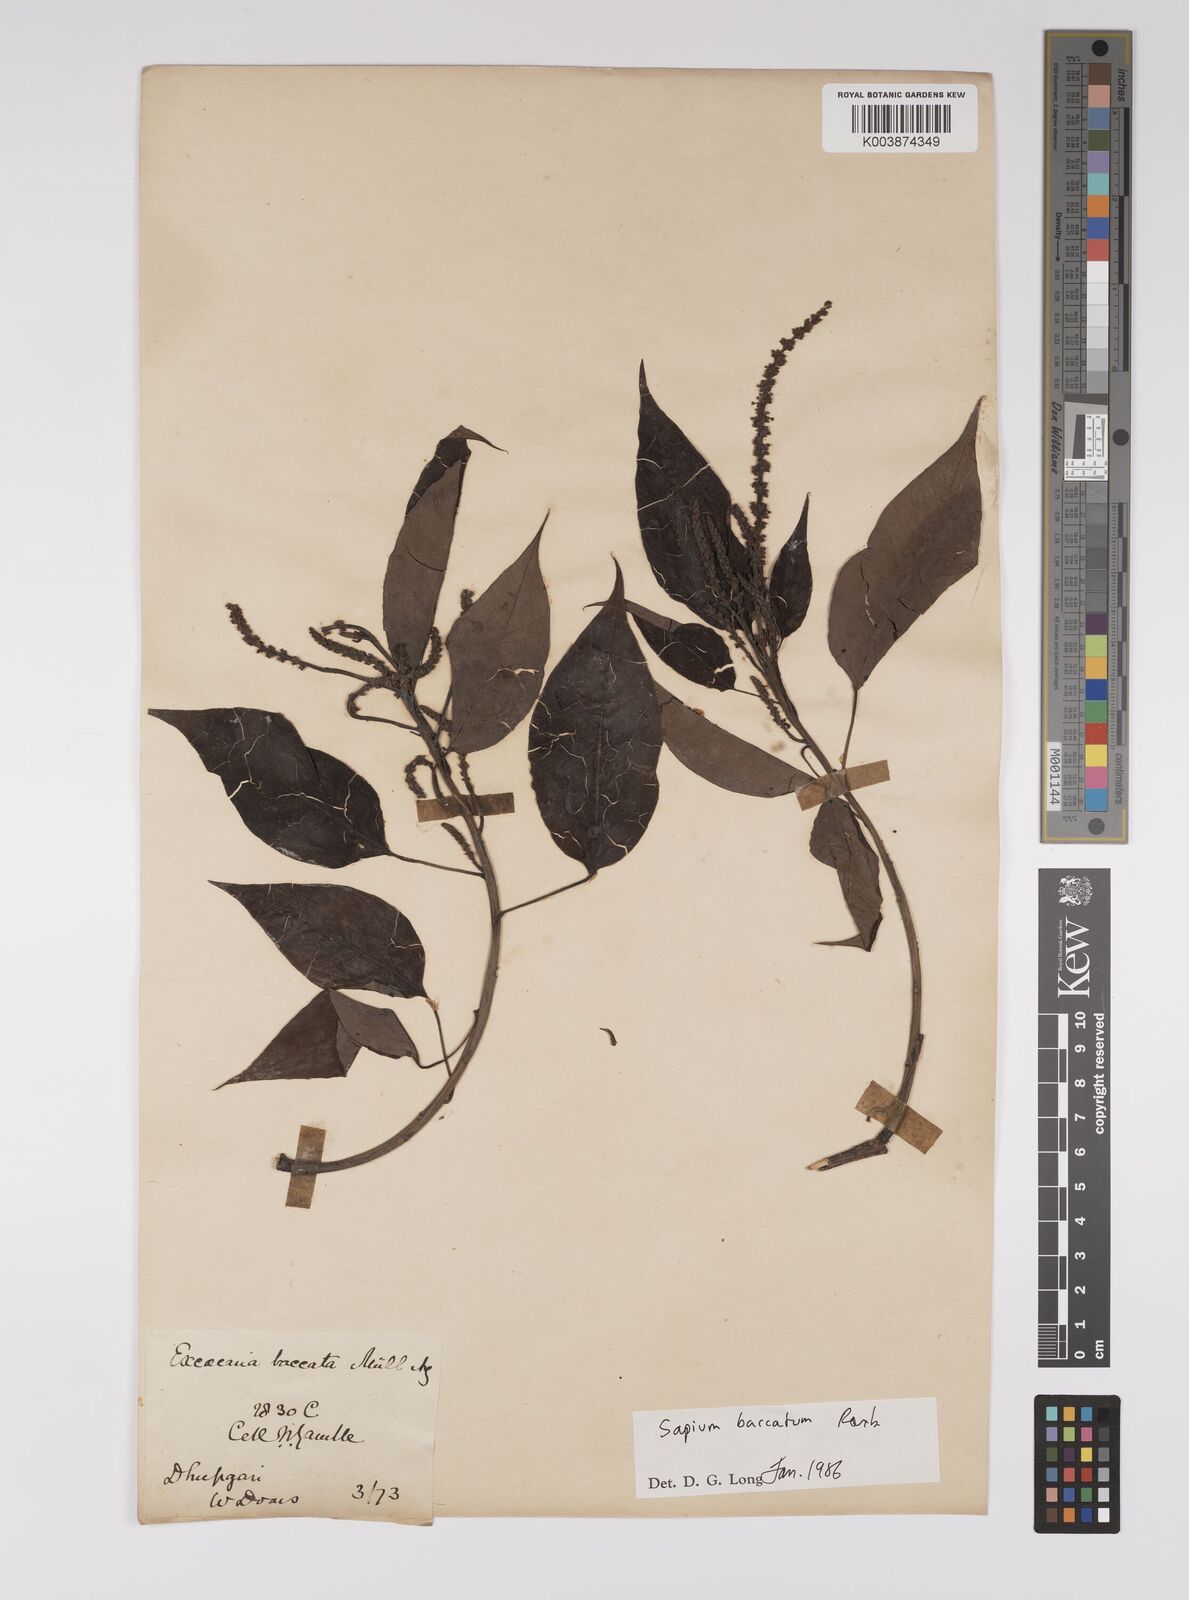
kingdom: Plantae
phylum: Tracheophyta
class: Magnoliopsida
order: Malpighiales
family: Euphorbiaceae
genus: Balakata
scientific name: Balakata baccata
